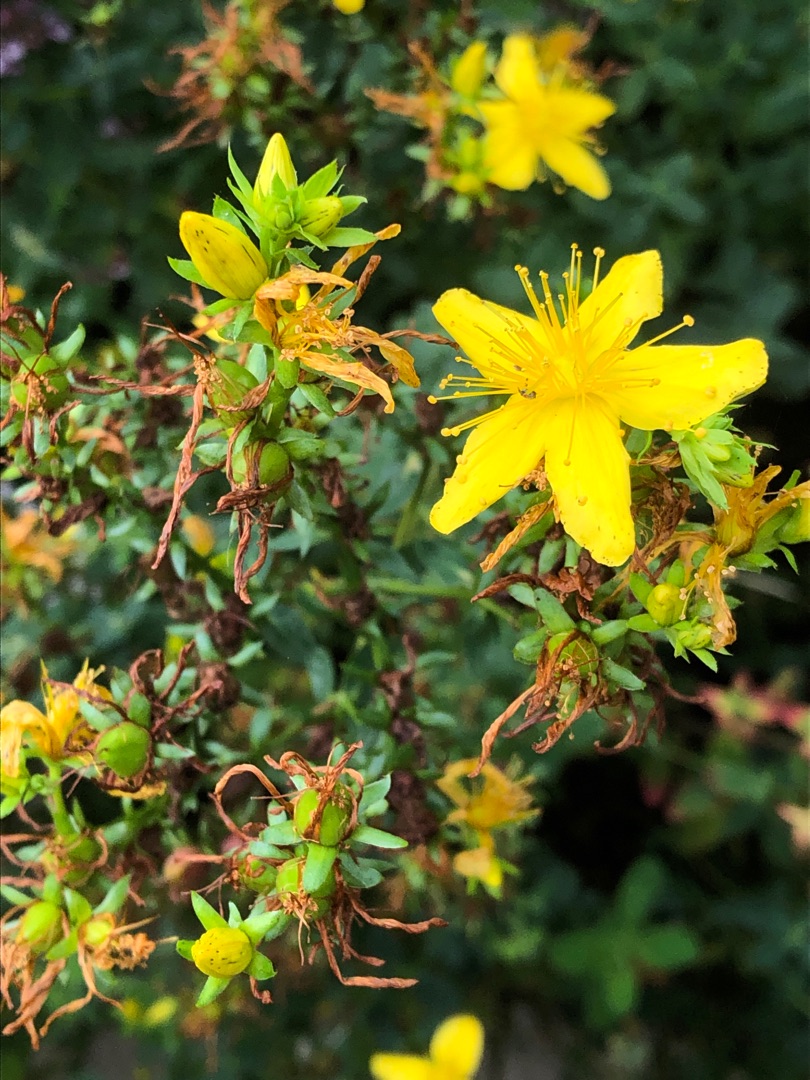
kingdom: Plantae
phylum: Tracheophyta
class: Magnoliopsida
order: Malpighiales
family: Hypericaceae
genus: Hypericum
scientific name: Hypericum perforatum
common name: Prikbladet perikon
